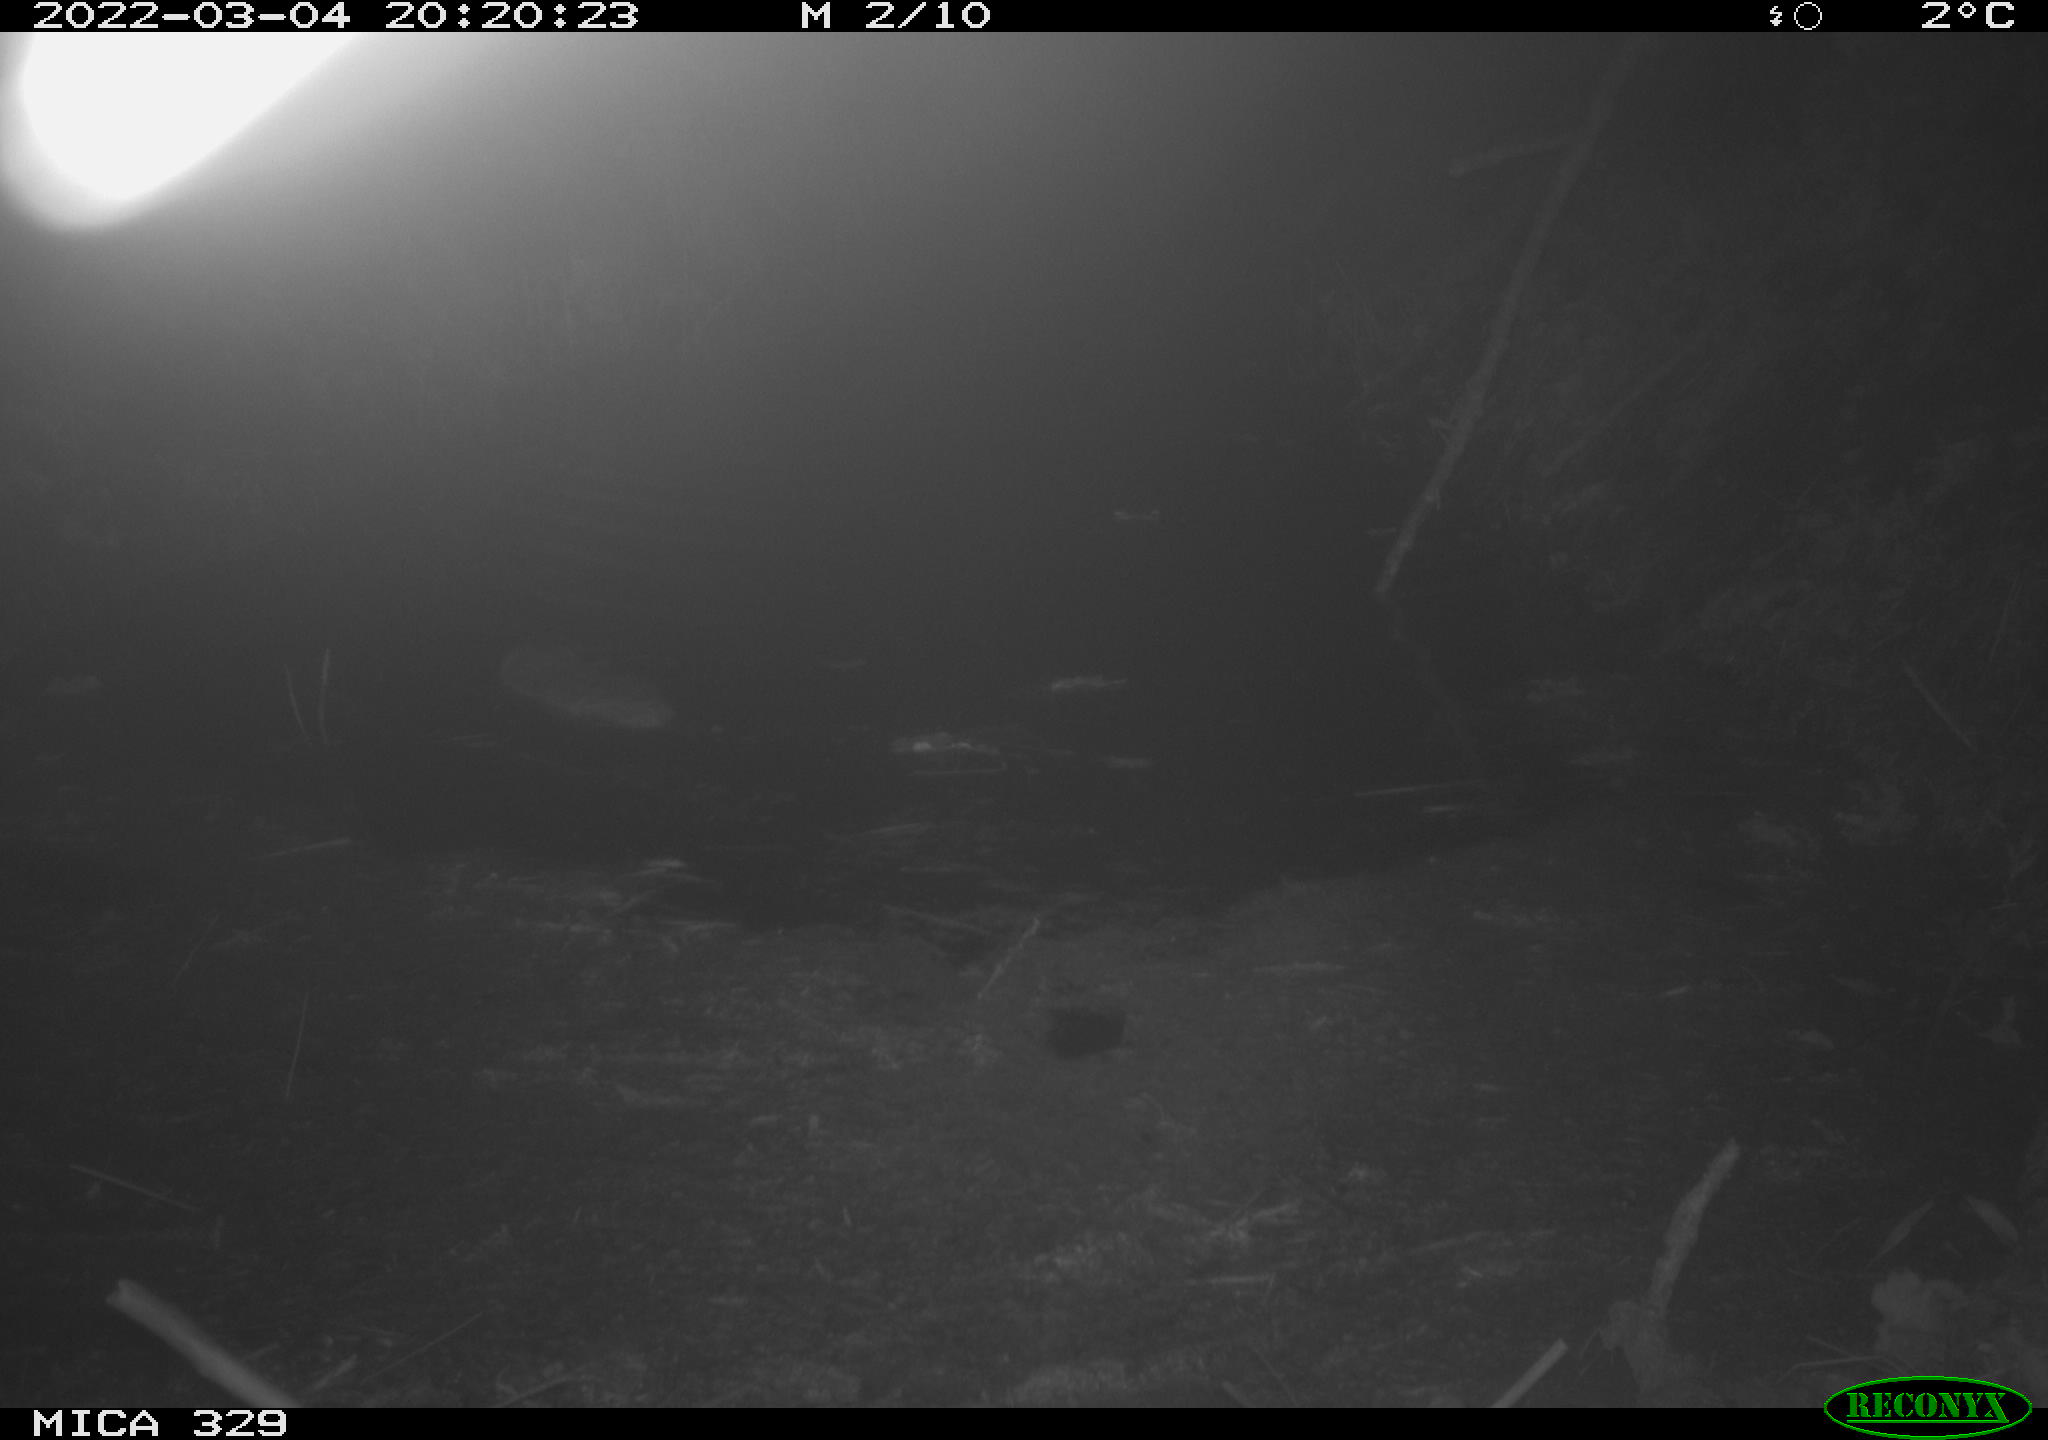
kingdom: Animalia
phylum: Chordata
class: Mammalia
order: Rodentia
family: Cricetidae
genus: Ondatra
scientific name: Ondatra zibethicus
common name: Muskrat
